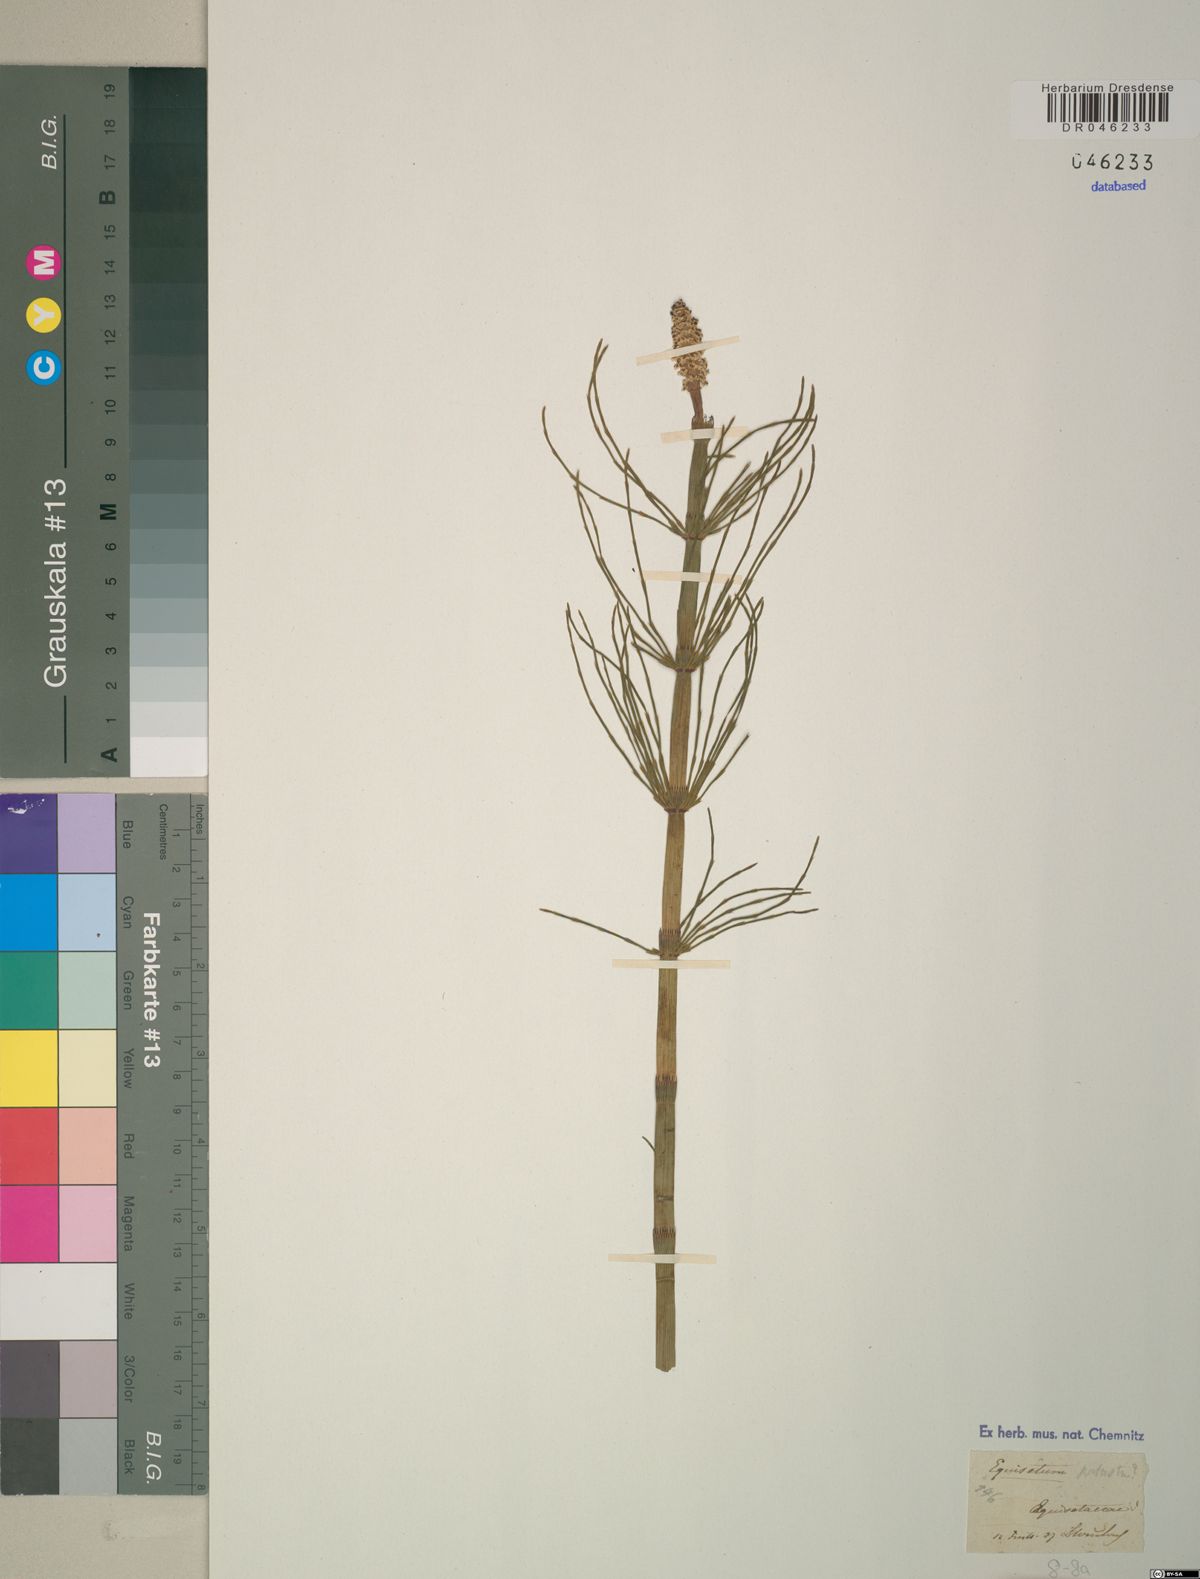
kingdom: Plantae
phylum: Tracheophyta
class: Polypodiopsida
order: Equisetales
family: Equisetaceae
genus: Equisetum
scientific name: Equisetum palustre
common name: Marsh horsetail
